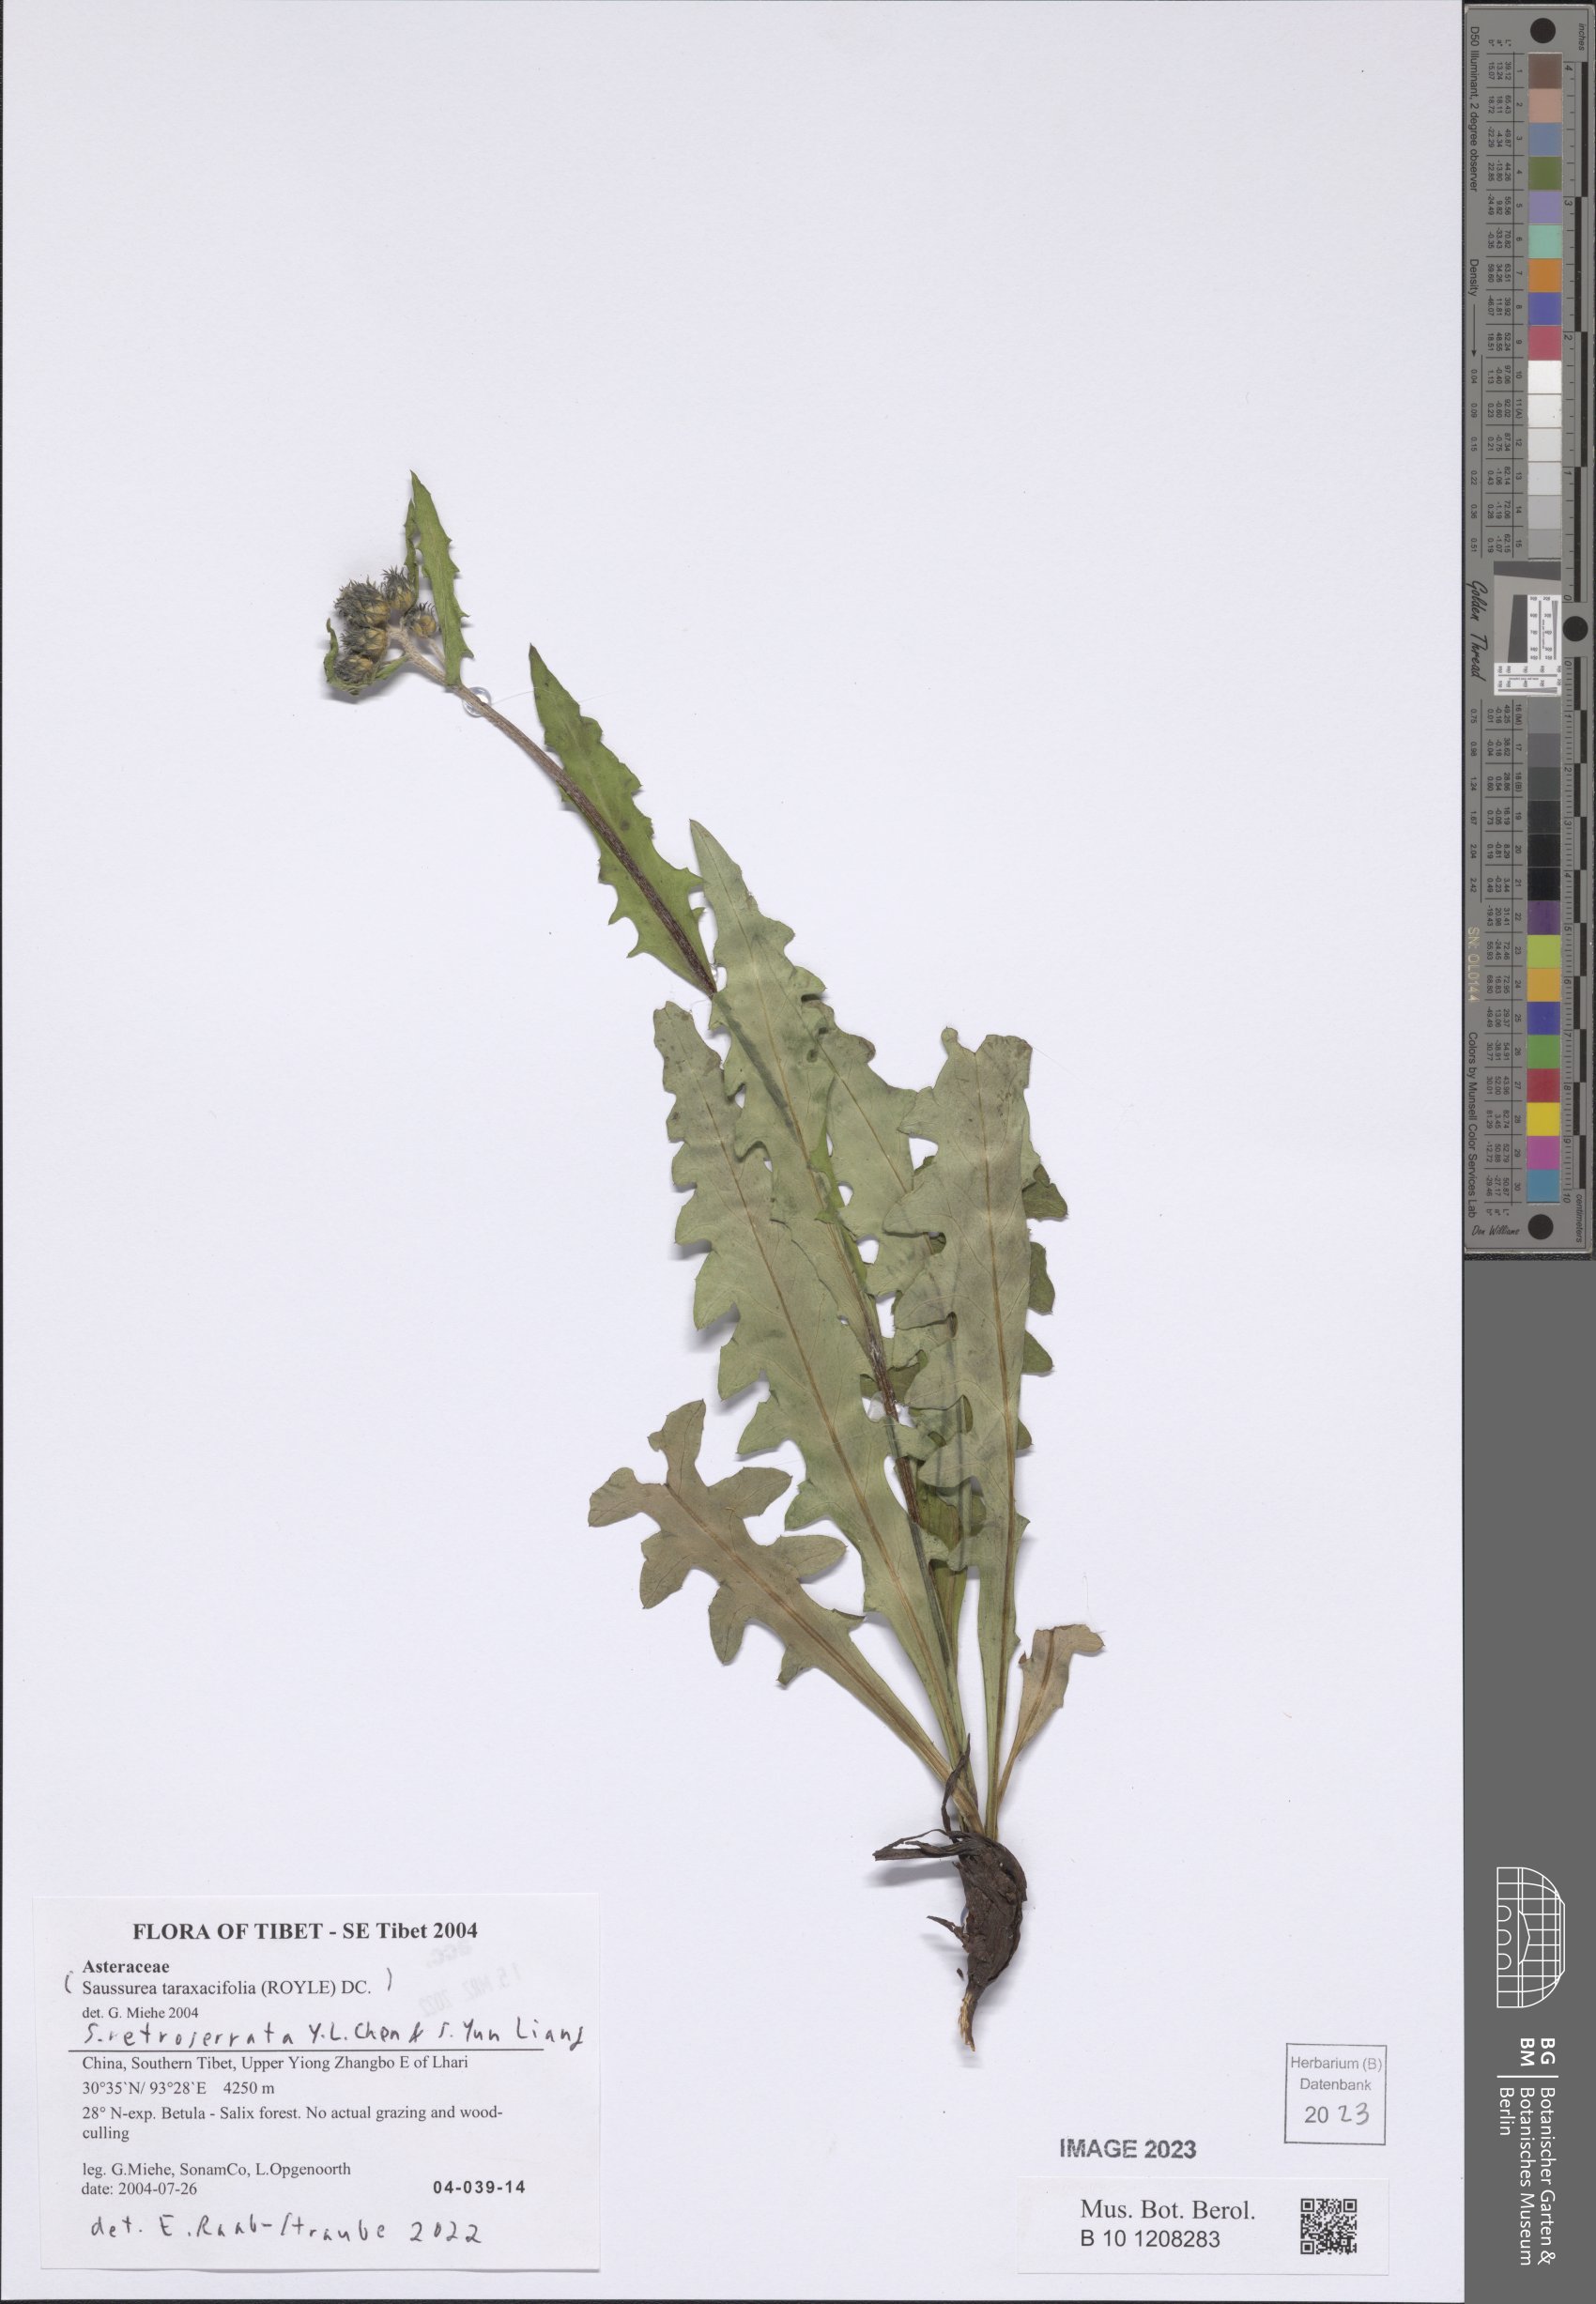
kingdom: Plantae
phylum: Tracheophyta
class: Magnoliopsida
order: Asterales
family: Asteraceae
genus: Saussurea
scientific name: Saussurea retroserrata
